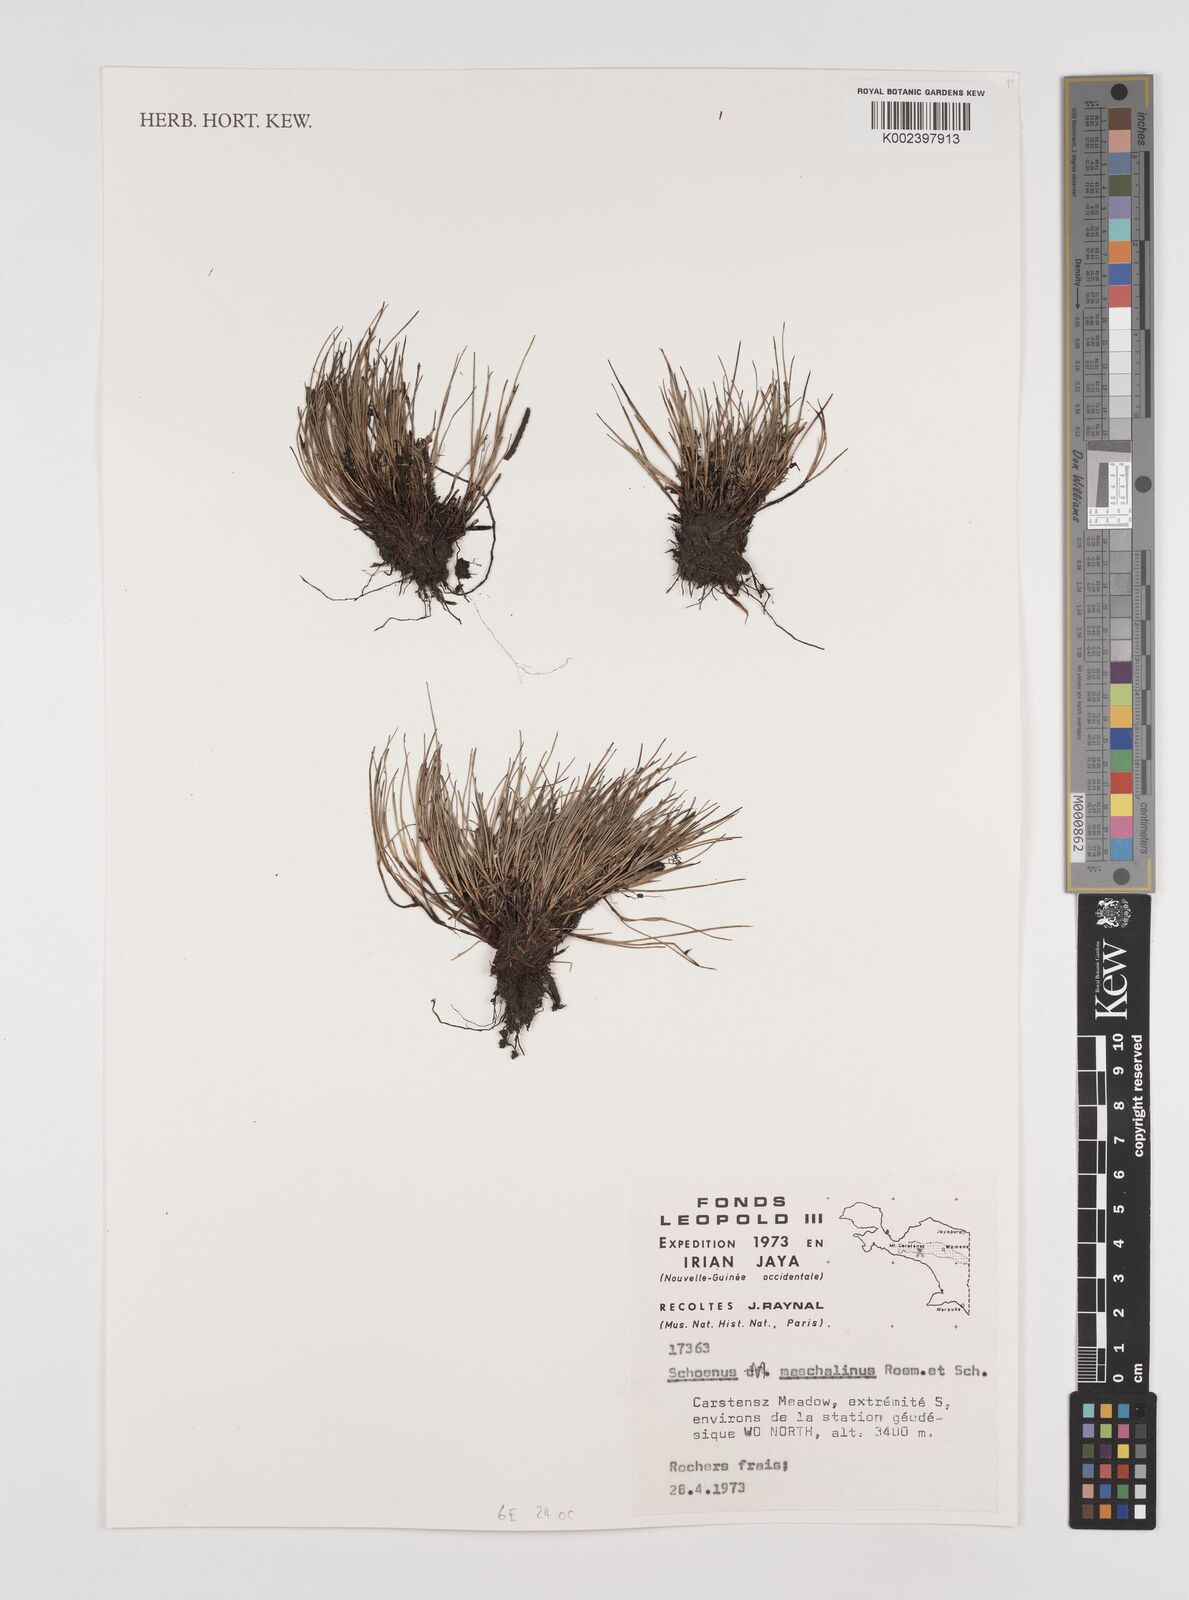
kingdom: Plantae
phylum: Tracheophyta
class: Liliopsida
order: Poales
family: Cyperaceae
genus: Schoenus
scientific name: Schoenus maschalinus
